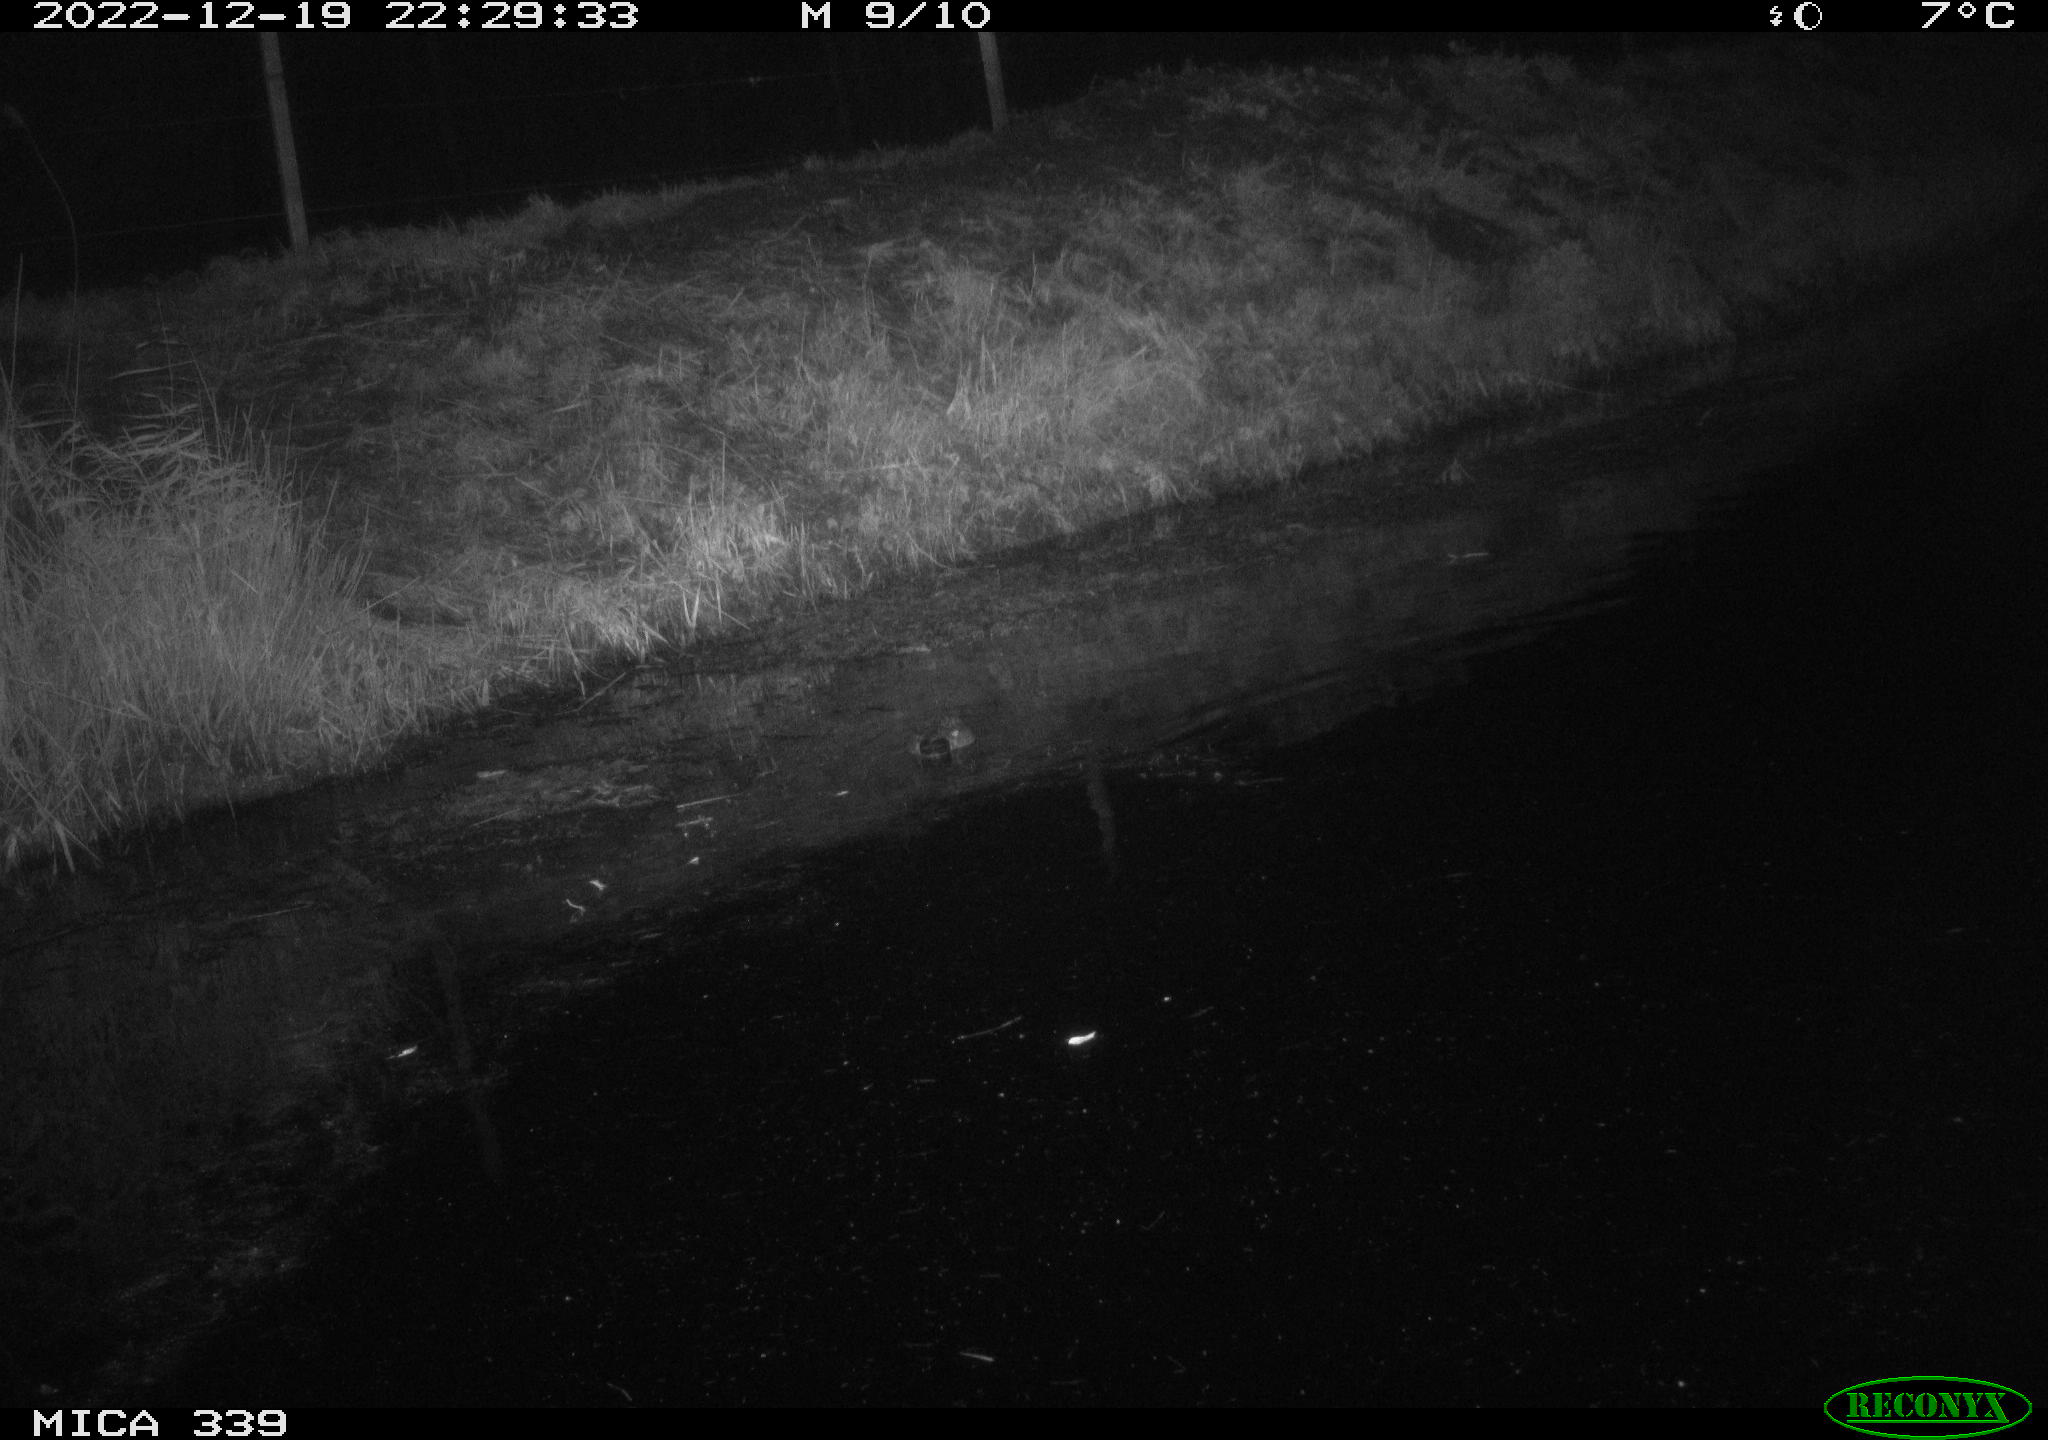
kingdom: Animalia
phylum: Chordata
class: Aves
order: Anseriformes
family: Anatidae
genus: Anas
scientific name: Anas
